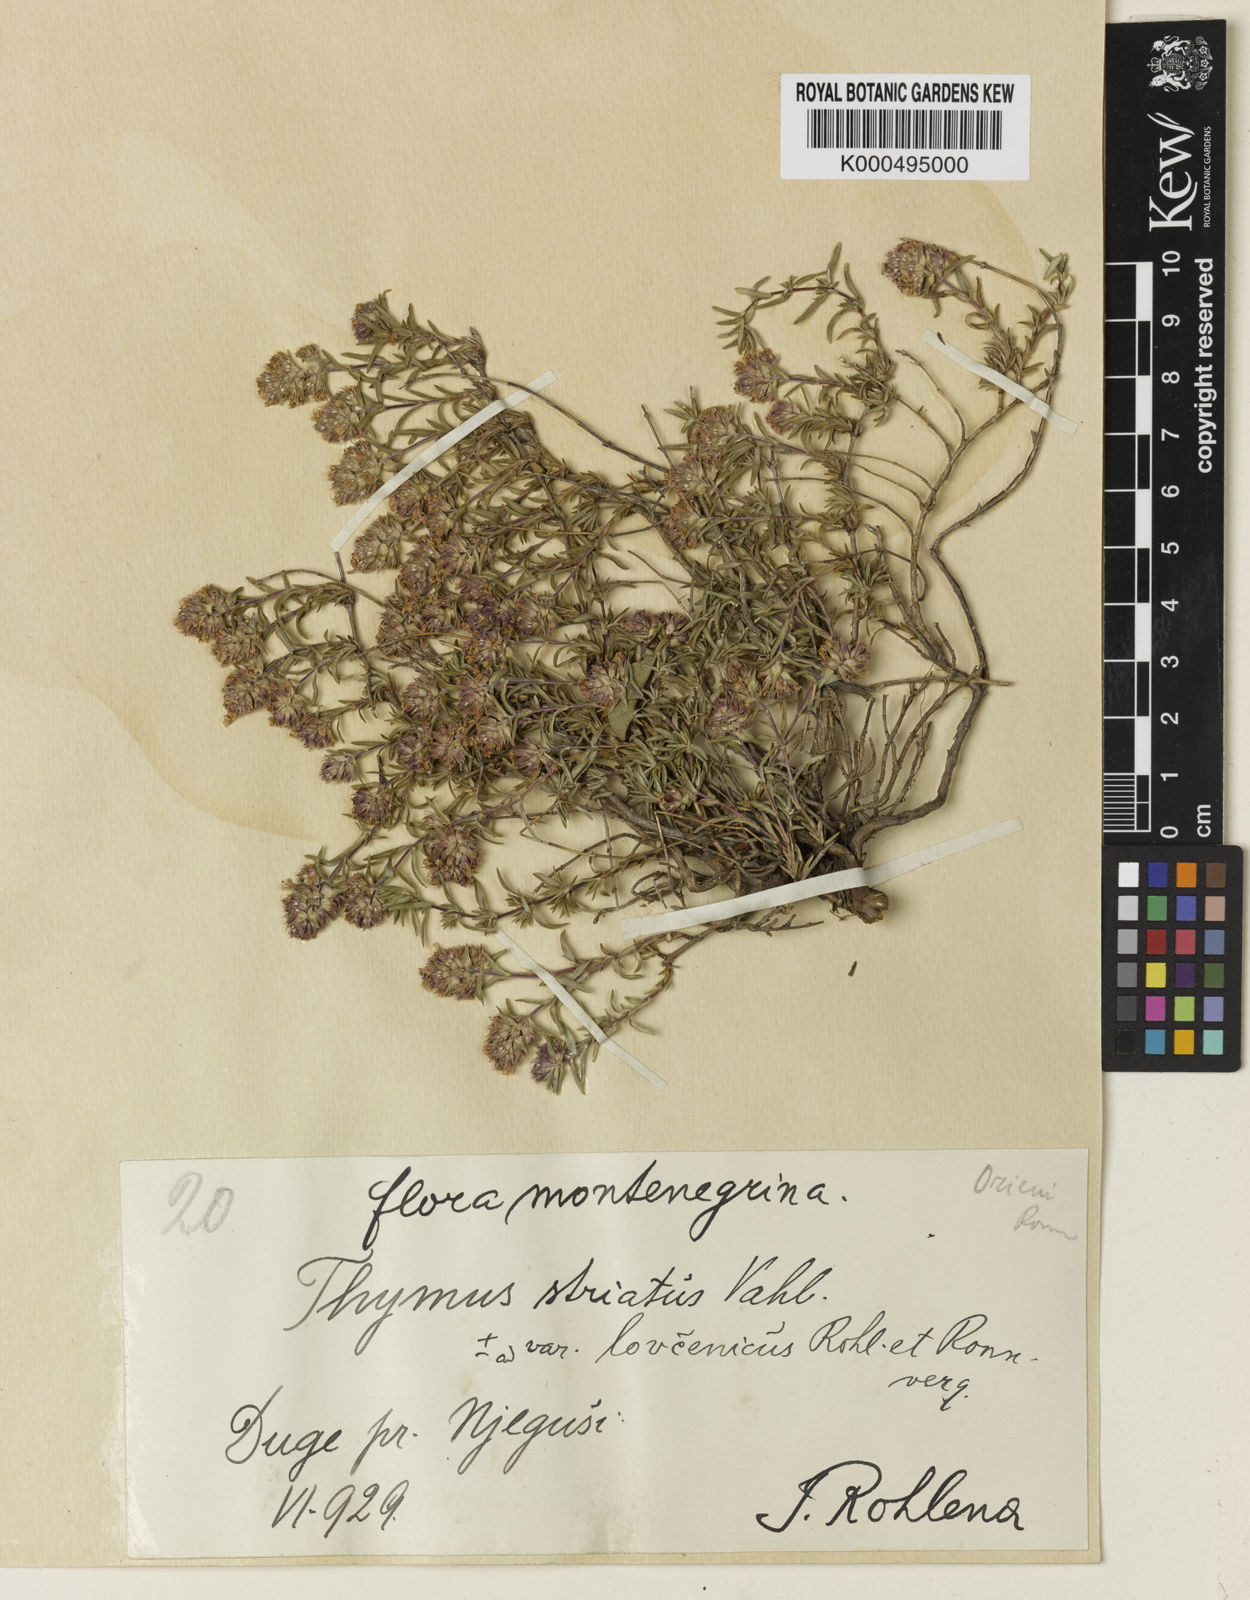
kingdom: Plantae
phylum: Tracheophyta
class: Magnoliopsida
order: Lamiales
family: Lamiaceae
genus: Thymus
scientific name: Thymus striatus
